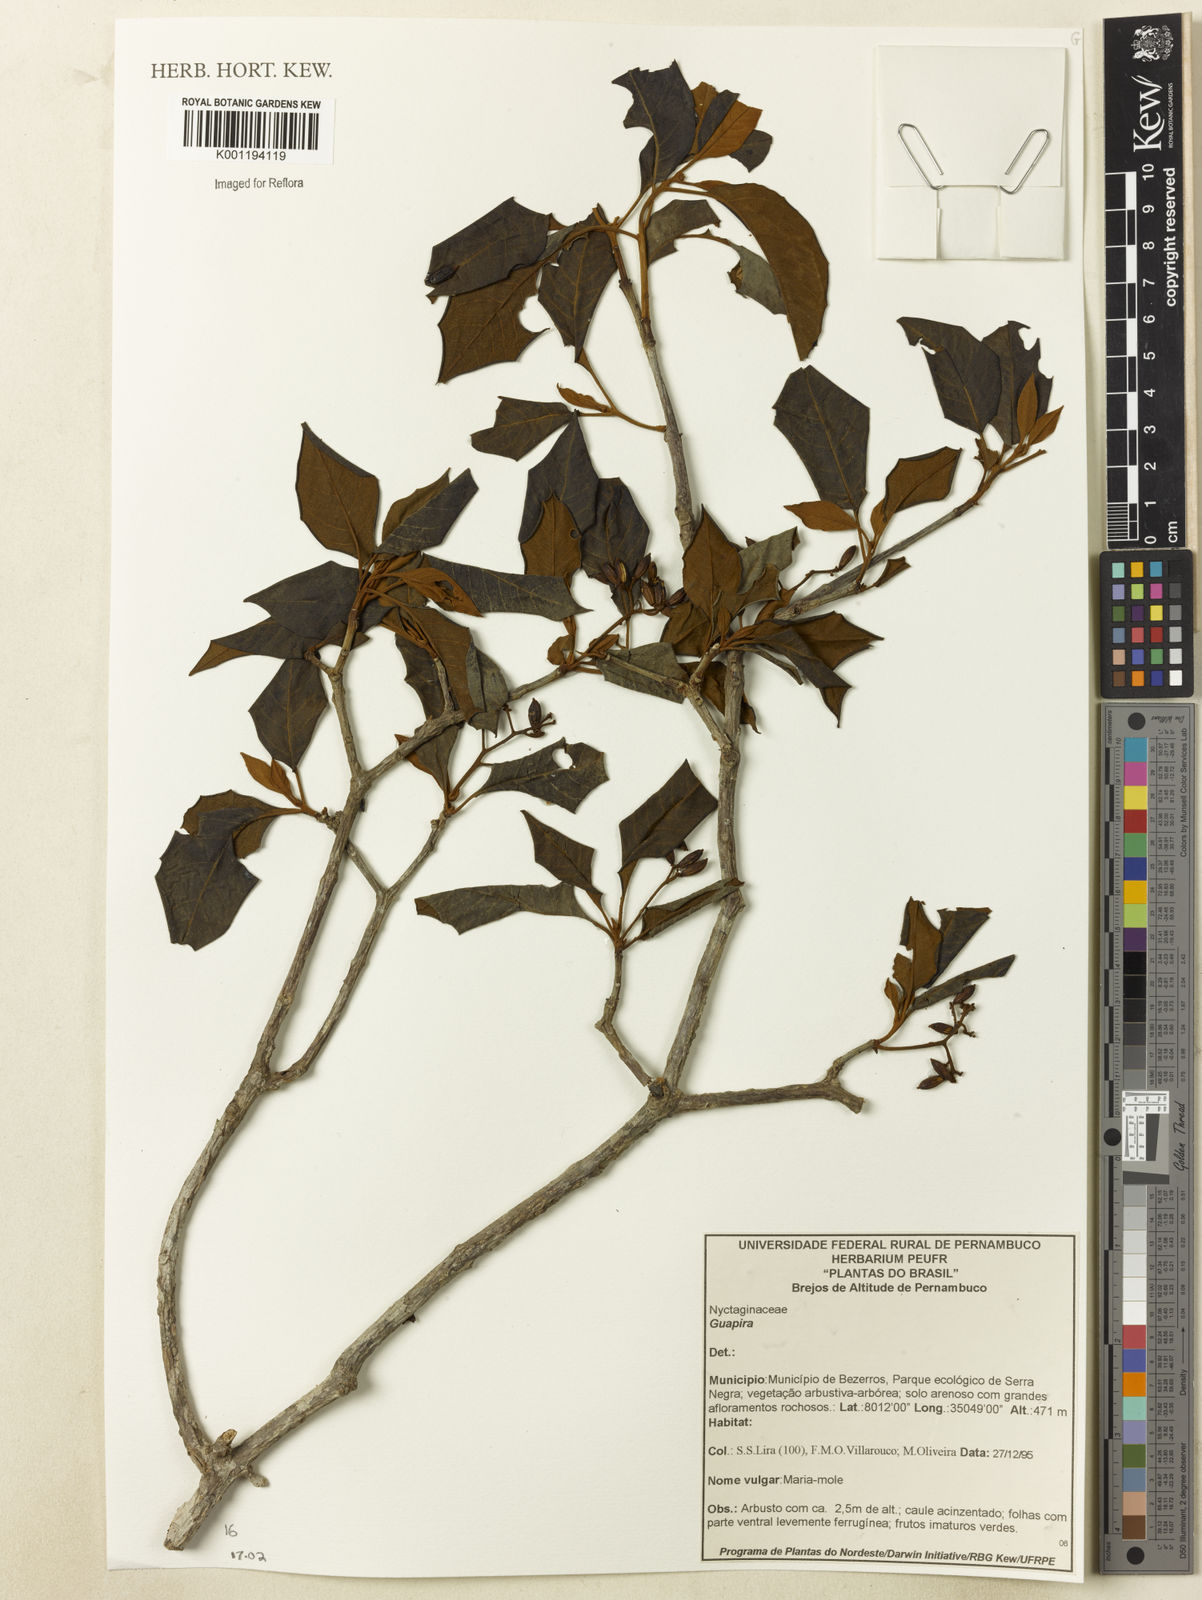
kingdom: Plantae
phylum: Tracheophyta
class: Magnoliopsida
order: Caryophyllales
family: Nyctaginaceae
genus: Guapira
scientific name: Guapira
